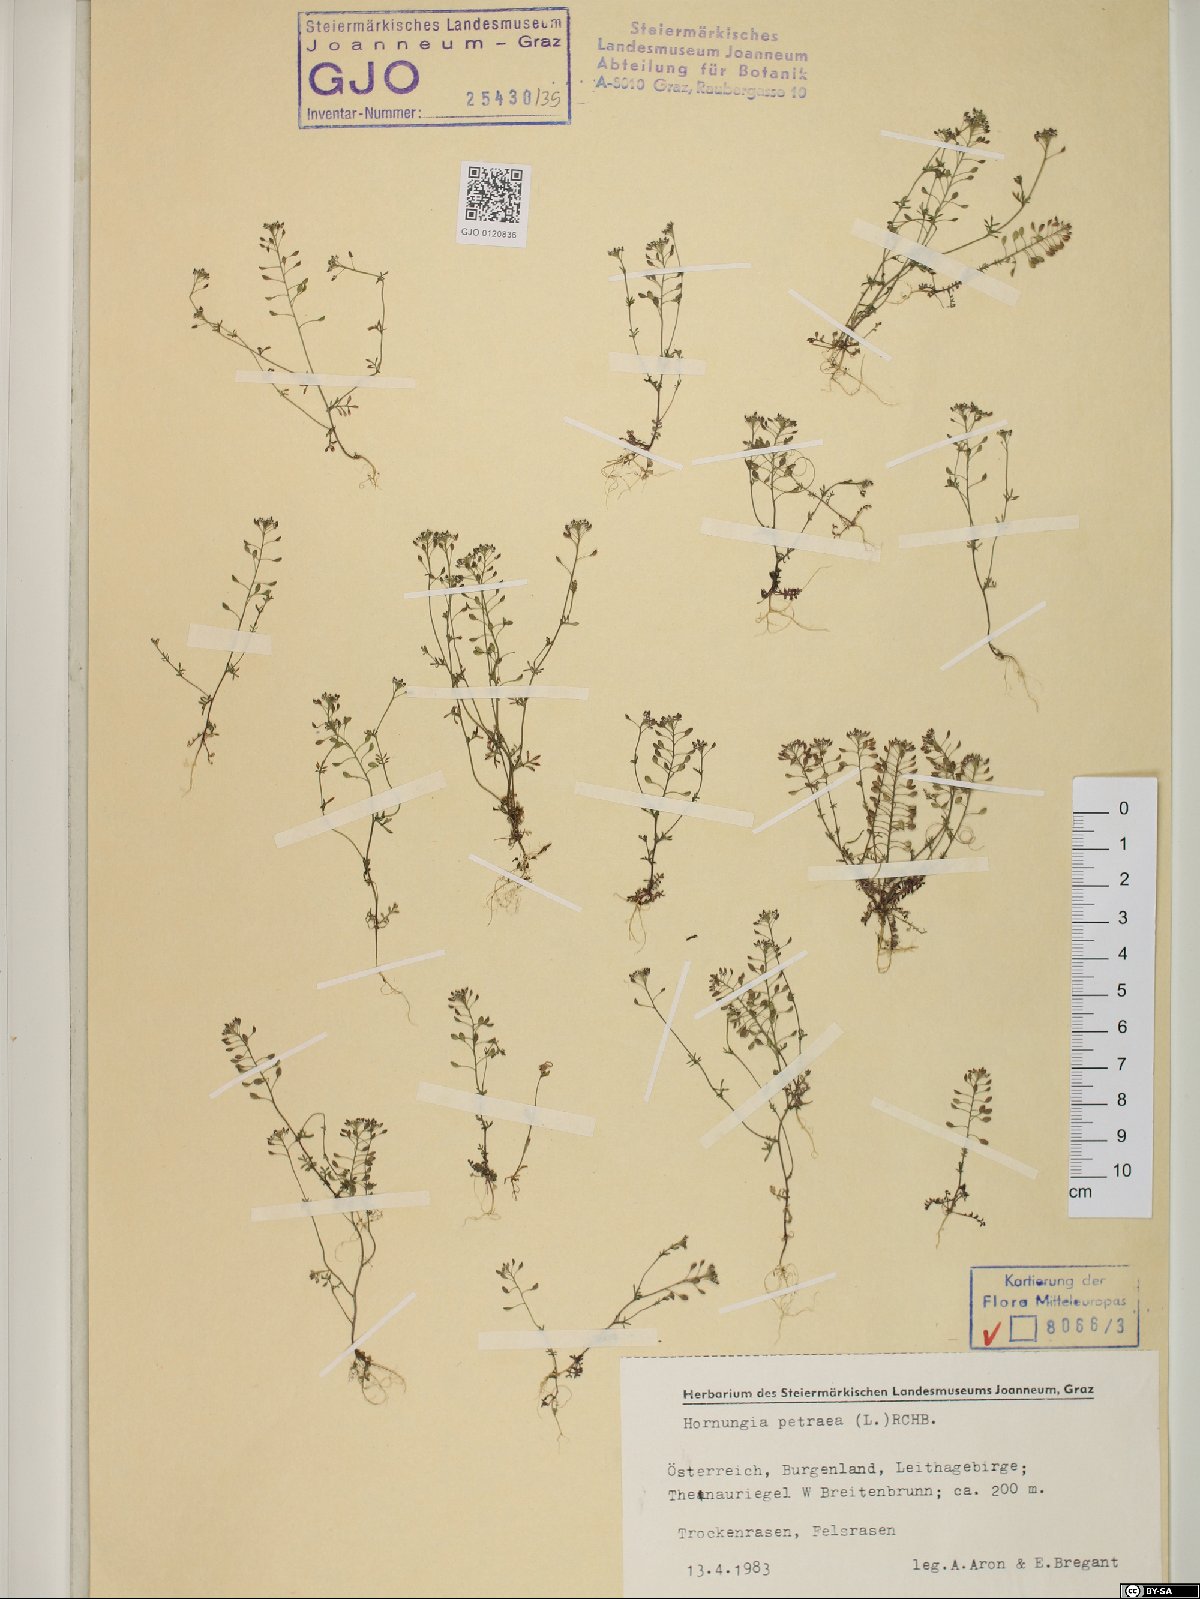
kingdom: Plantae
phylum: Tracheophyta
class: Magnoliopsida
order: Brassicales
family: Brassicaceae
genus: Hornungia
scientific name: Hornungia petraea
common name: Hutchinsia
